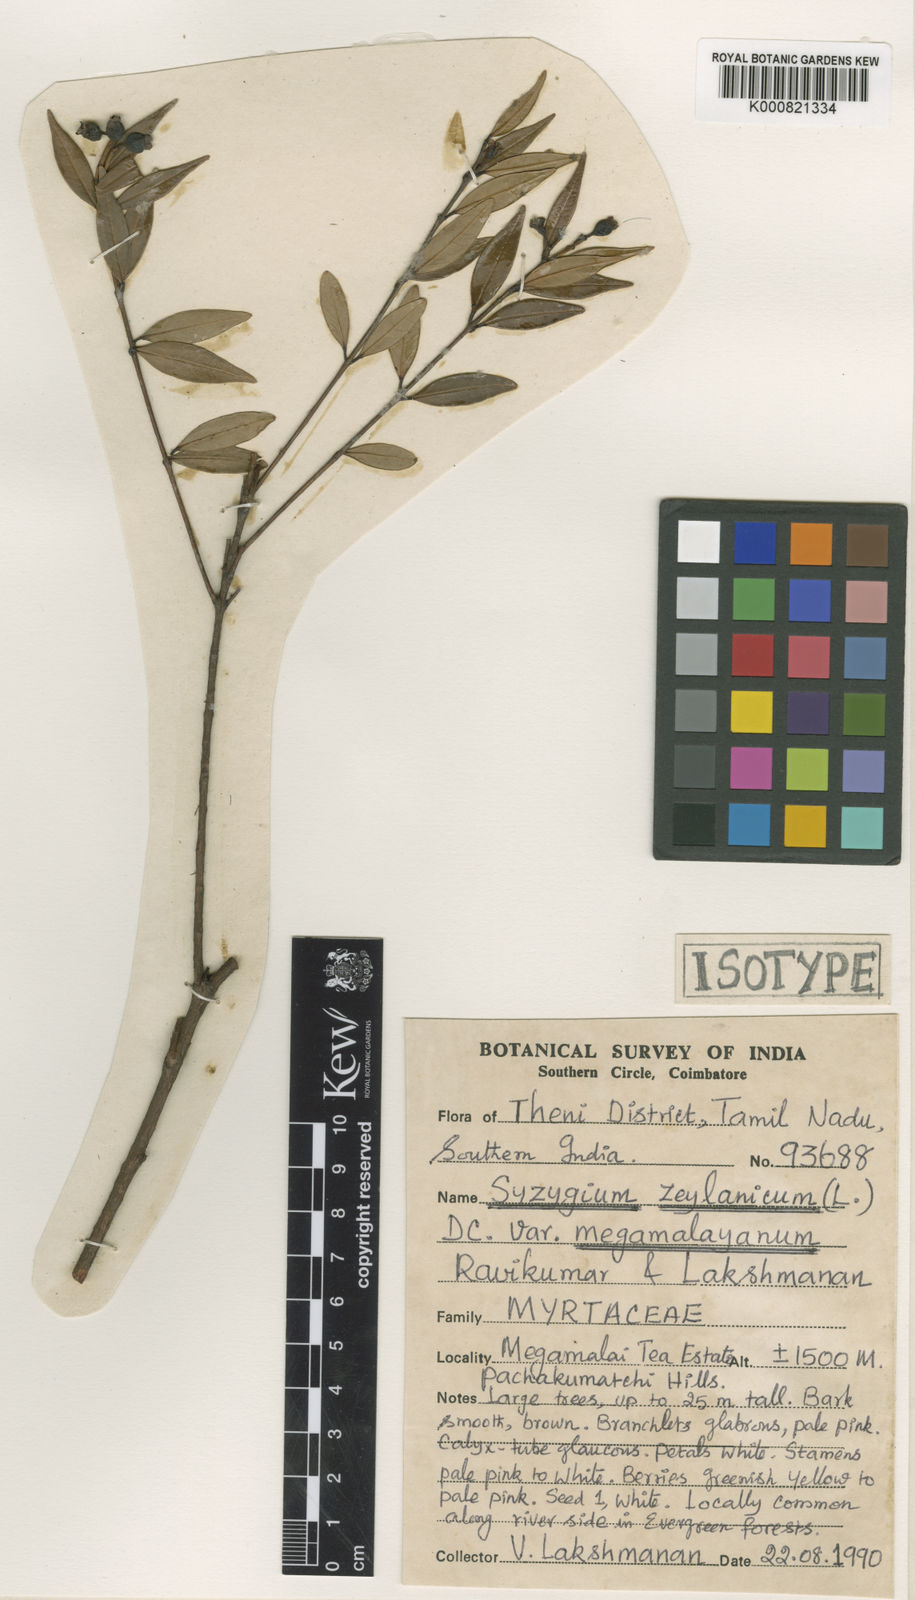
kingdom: Plantae
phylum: Tracheophyta
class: Magnoliopsida
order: Myrtales
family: Myrtaceae
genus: Syzygium
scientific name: Syzygium zeylanicum
